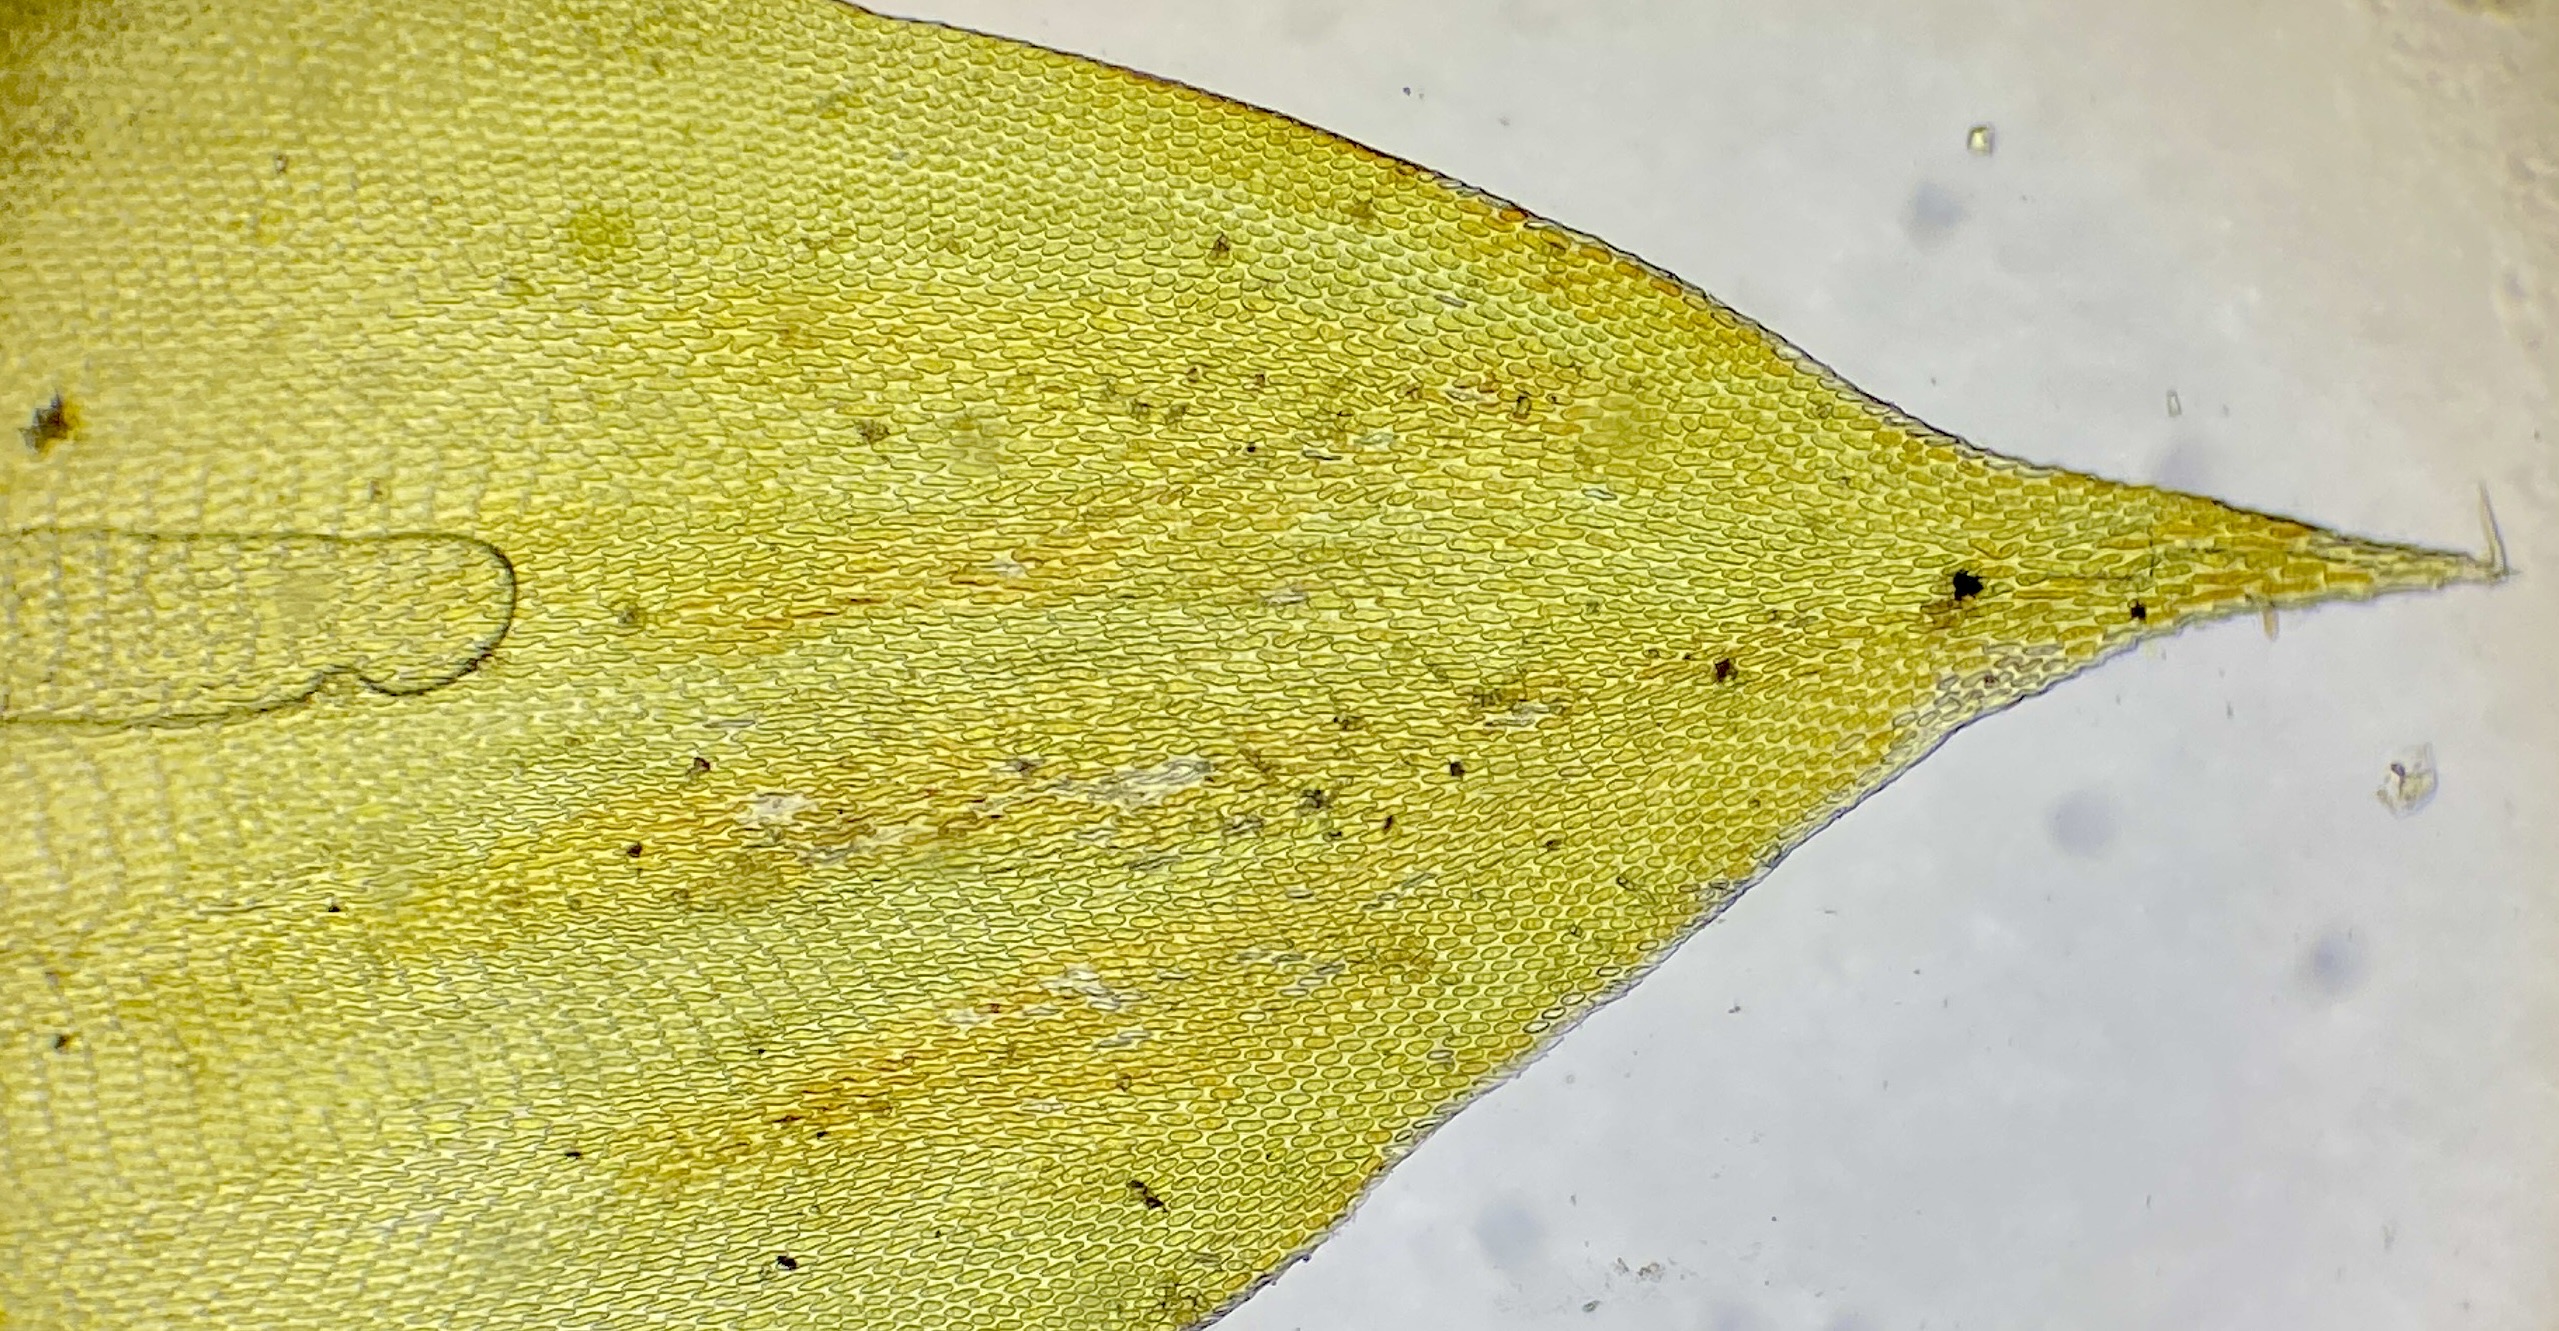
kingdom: Plantae
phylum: Bryophyta
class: Bryopsida
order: Hypnales
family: Leucodontaceae
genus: Leucodon
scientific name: Leucodon sciuroides
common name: Egernhale-buemos
